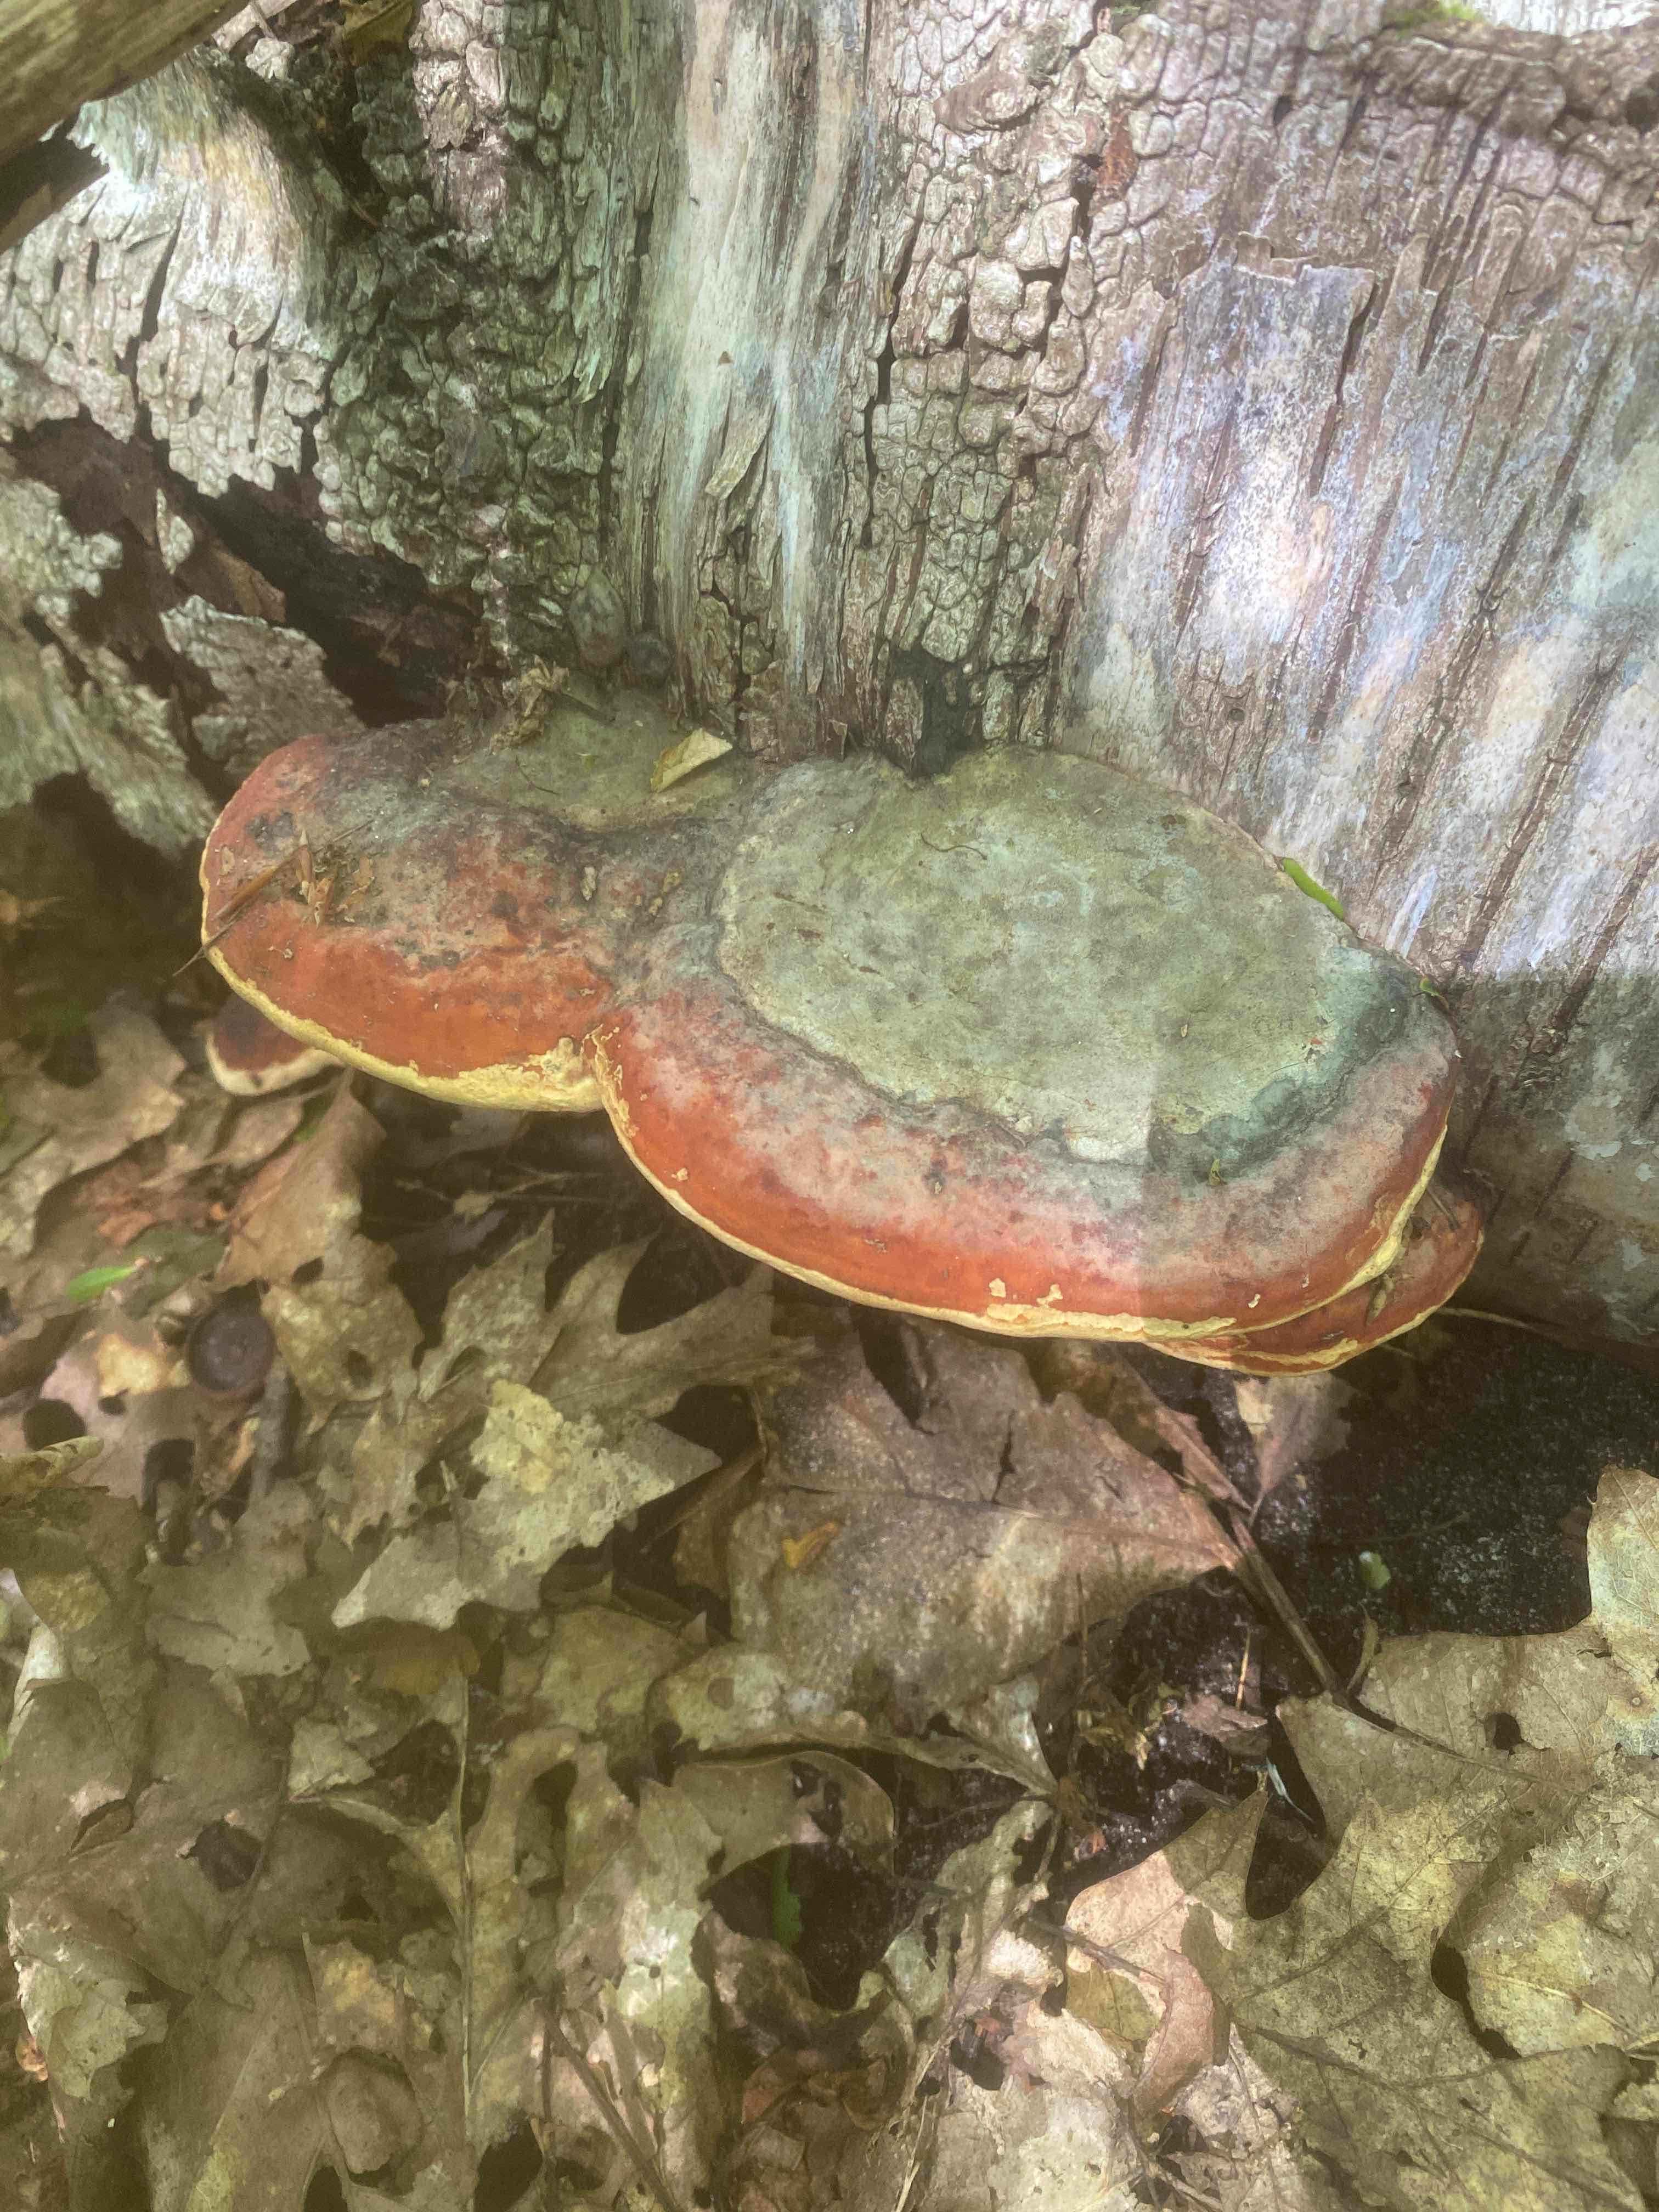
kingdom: Fungi
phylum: Basidiomycota
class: Agaricomycetes
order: Polyporales
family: Fomitopsidaceae
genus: Fomitopsis
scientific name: Fomitopsis pinicola
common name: randbæltet hovporesvamp
